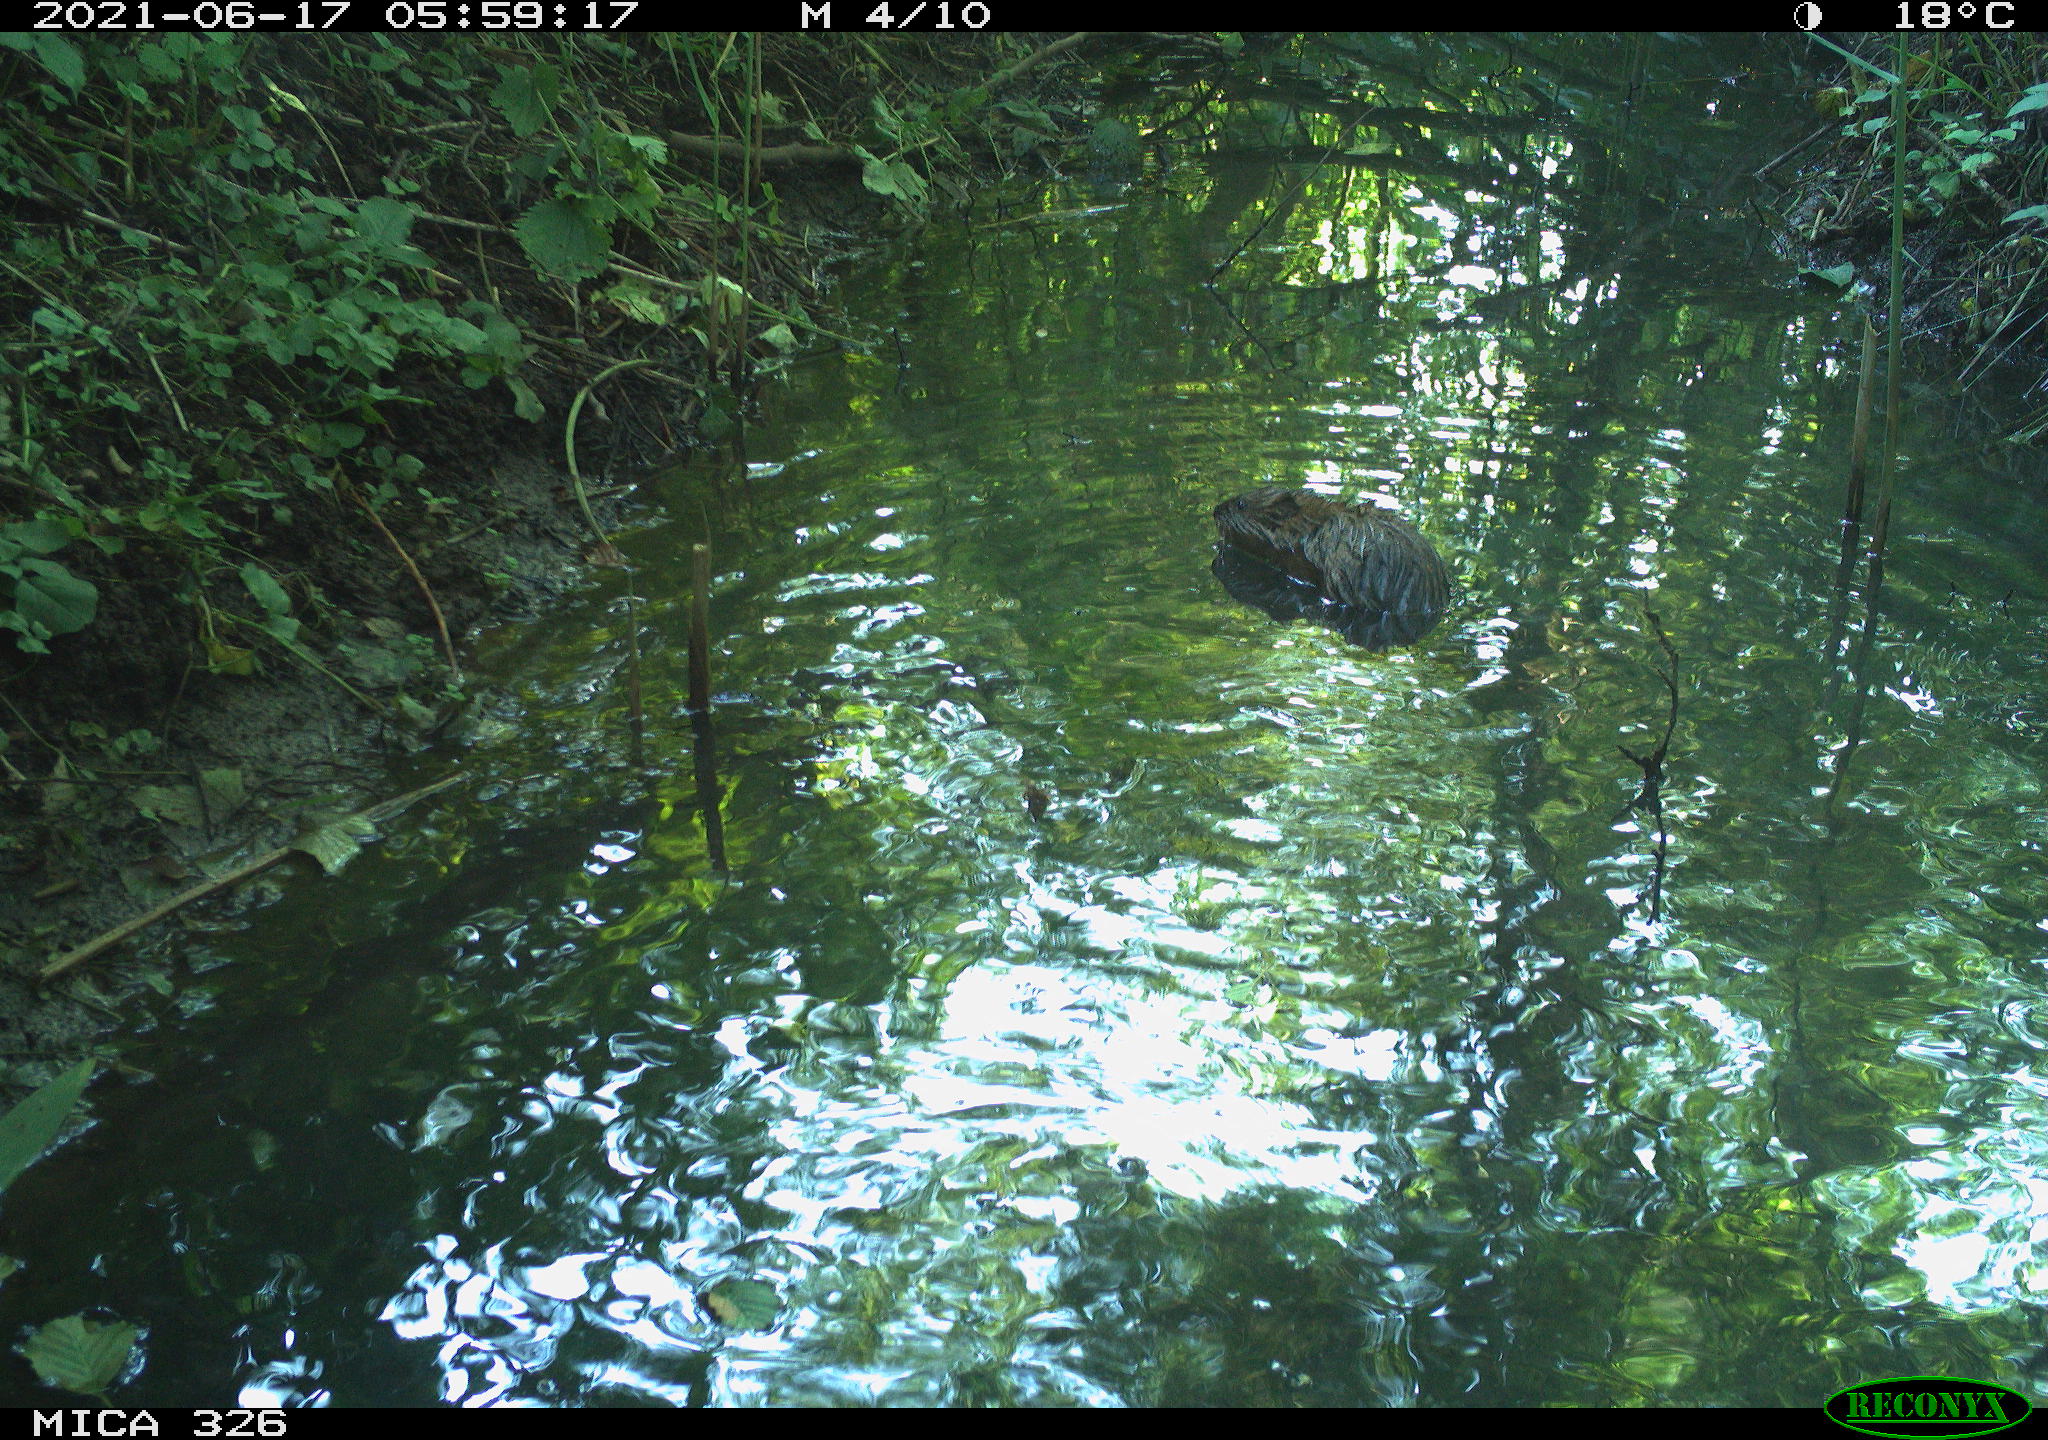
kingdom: Animalia
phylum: Chordata
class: Mammalia
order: Rodentia
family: Cricetidae
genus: Ondatra
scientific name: Ondatra zibethicus
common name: Muskrat
